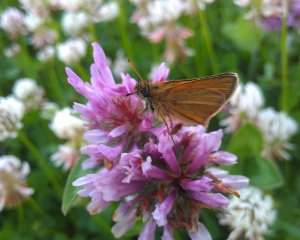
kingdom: Animalia
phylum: Arthropoda
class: Insecta
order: Lepidoptera
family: Hesperiidae
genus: Thymelicus
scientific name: Thymelicus lineola
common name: European Skipper
